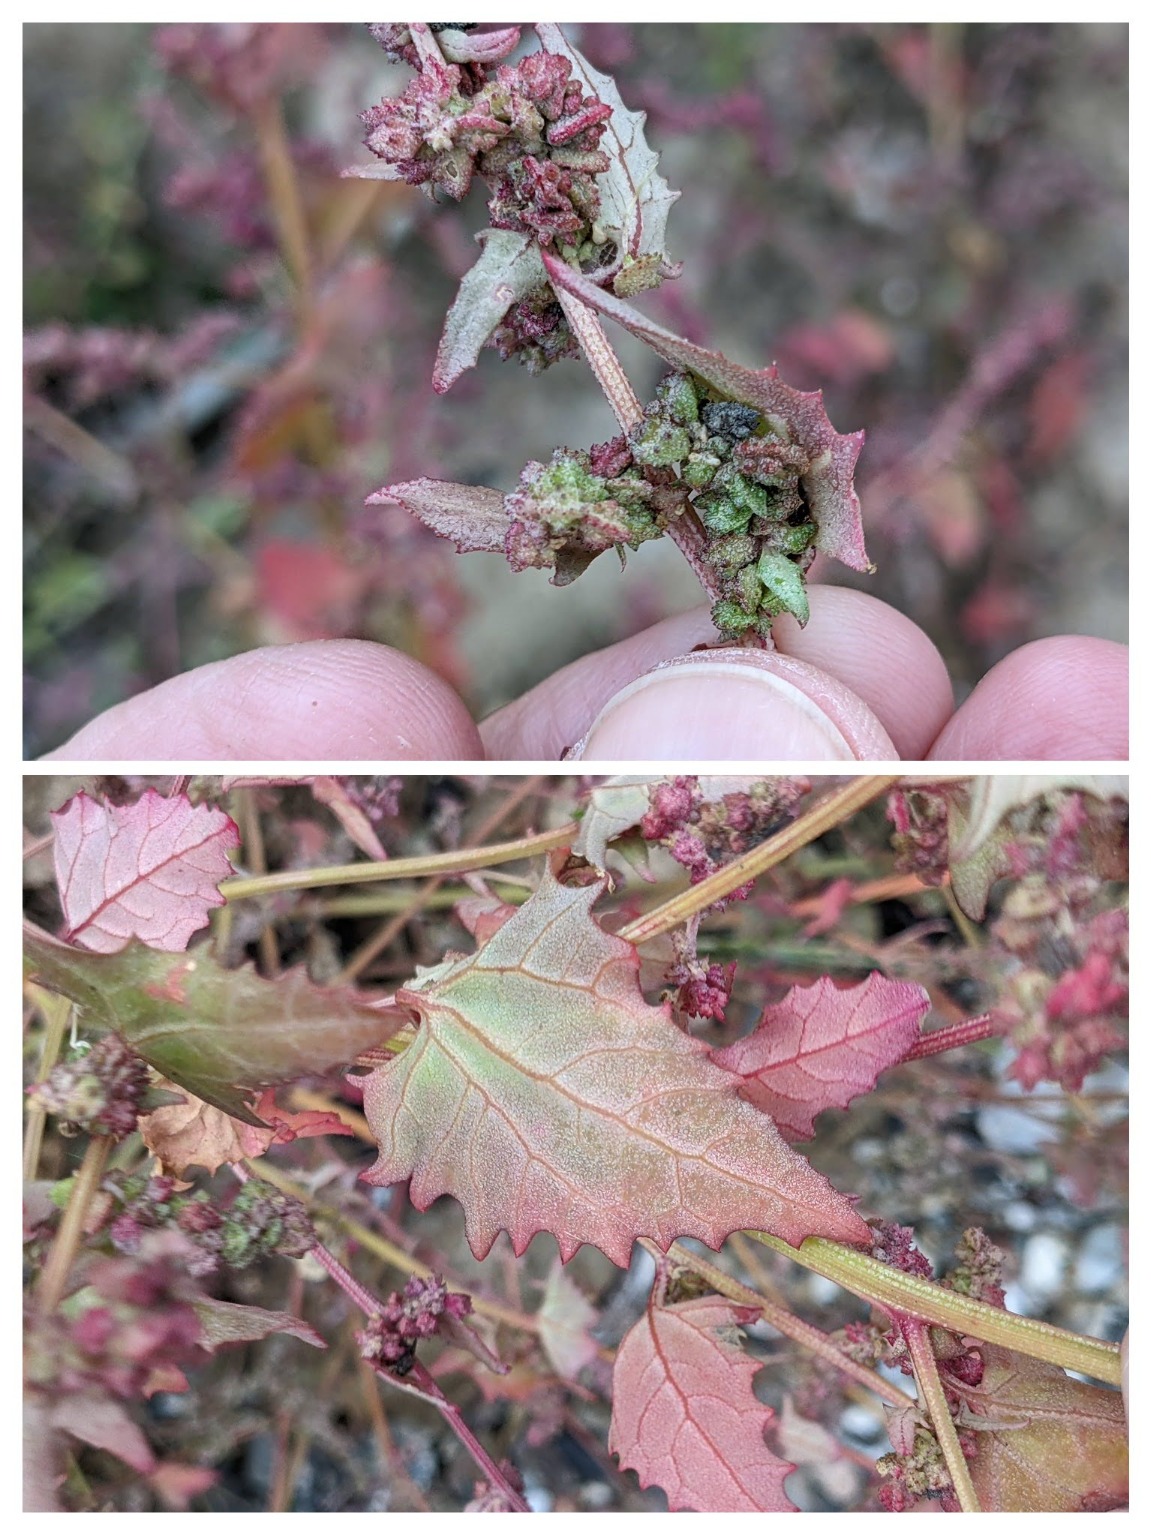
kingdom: Plantae
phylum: Tracheophyta
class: Magnoliopsida
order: Caryophyllales
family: Amaranthaceae
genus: Atriplex
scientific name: Atriplex prostrata
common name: Spyd-mælde
